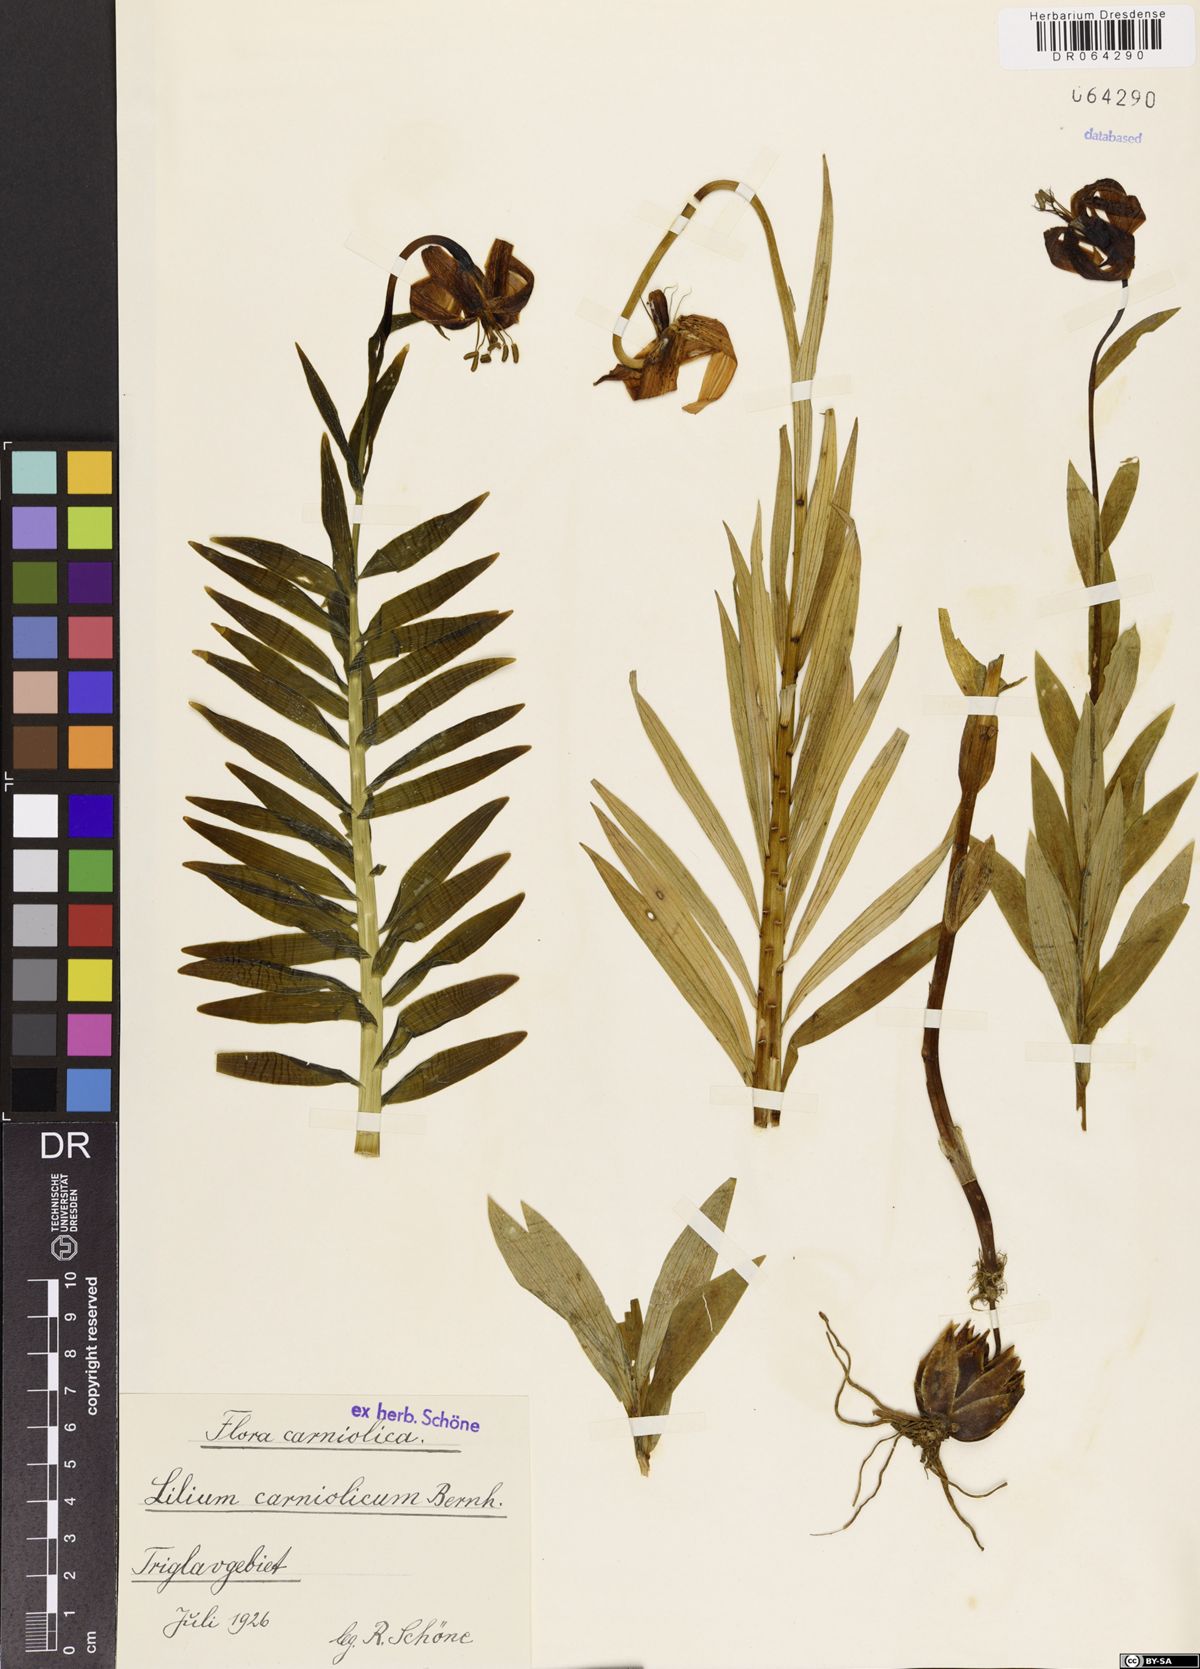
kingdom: Plantae
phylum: Tracheophyta
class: Liliopsida
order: Liliales
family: Liliaceae
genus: Lilium
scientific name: Lilium carniolicum
